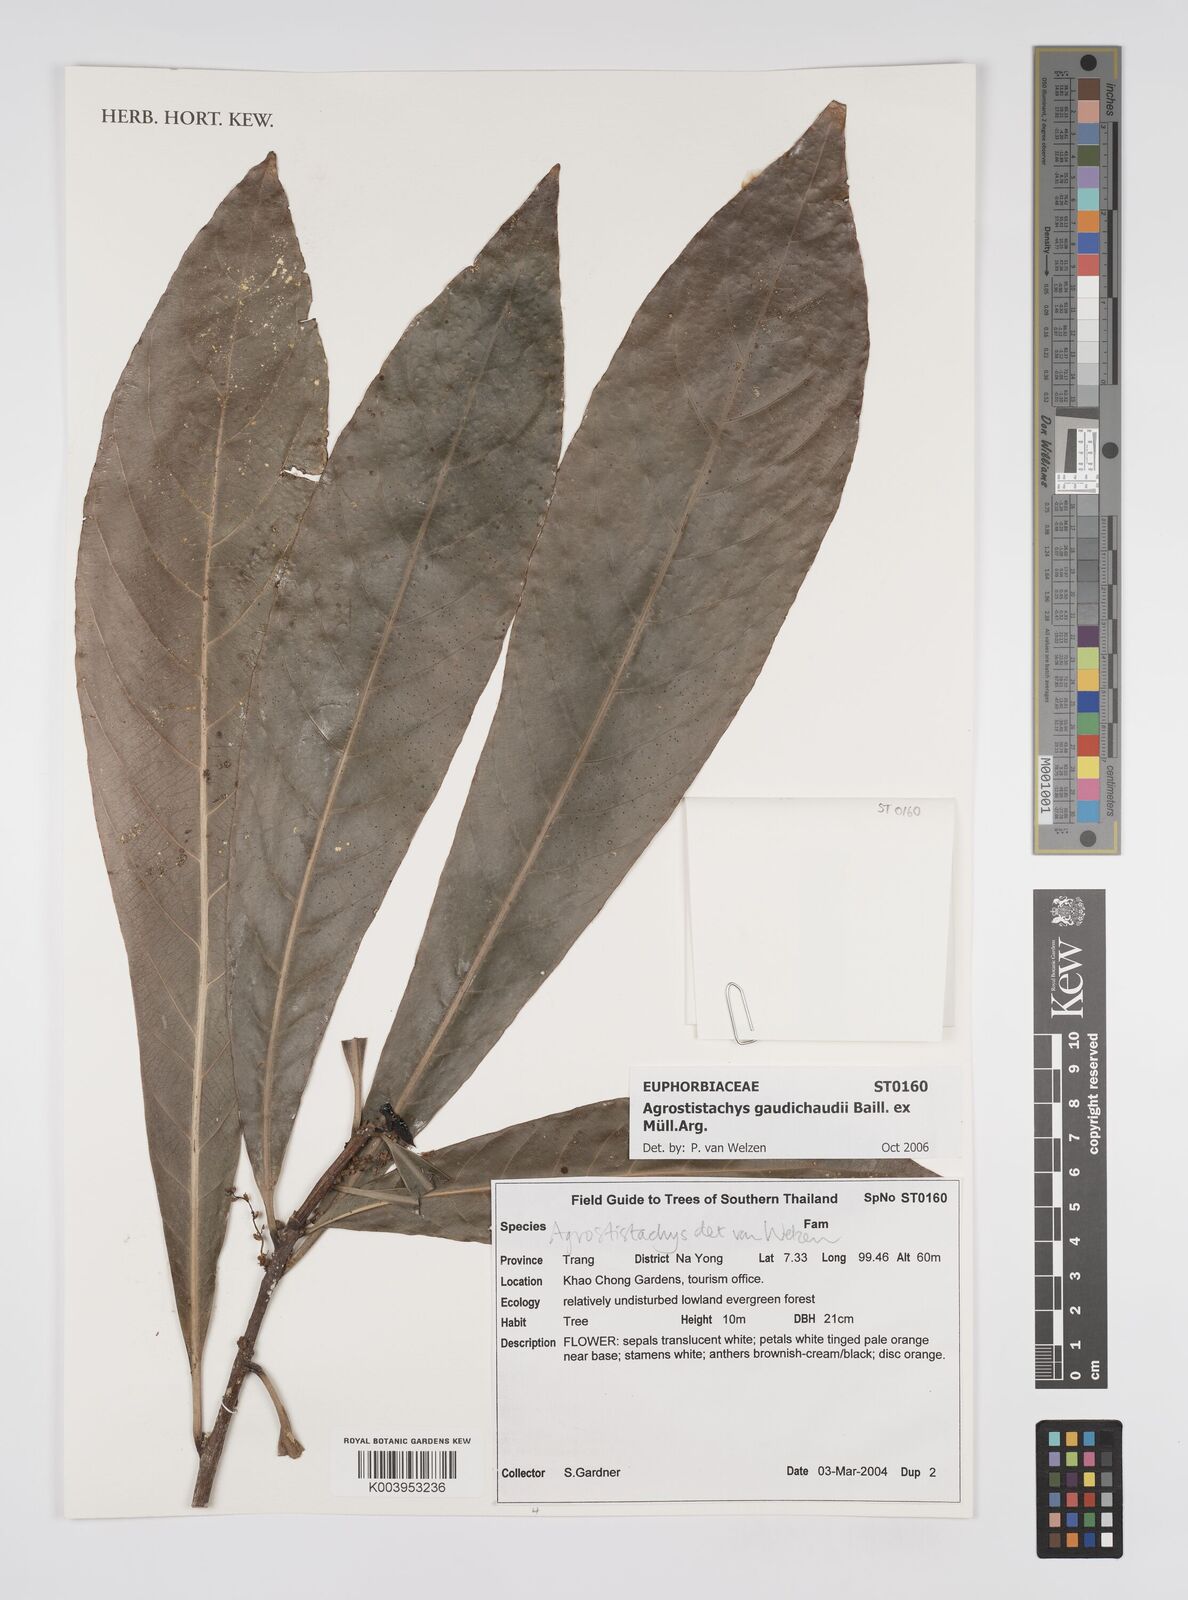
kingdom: Plantae
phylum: Tracheophyta
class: Magnoliopsida
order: Malpighiales
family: Euphorbiaceae
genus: Agrostistachys
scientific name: Agrostistachys gaudichaudii
